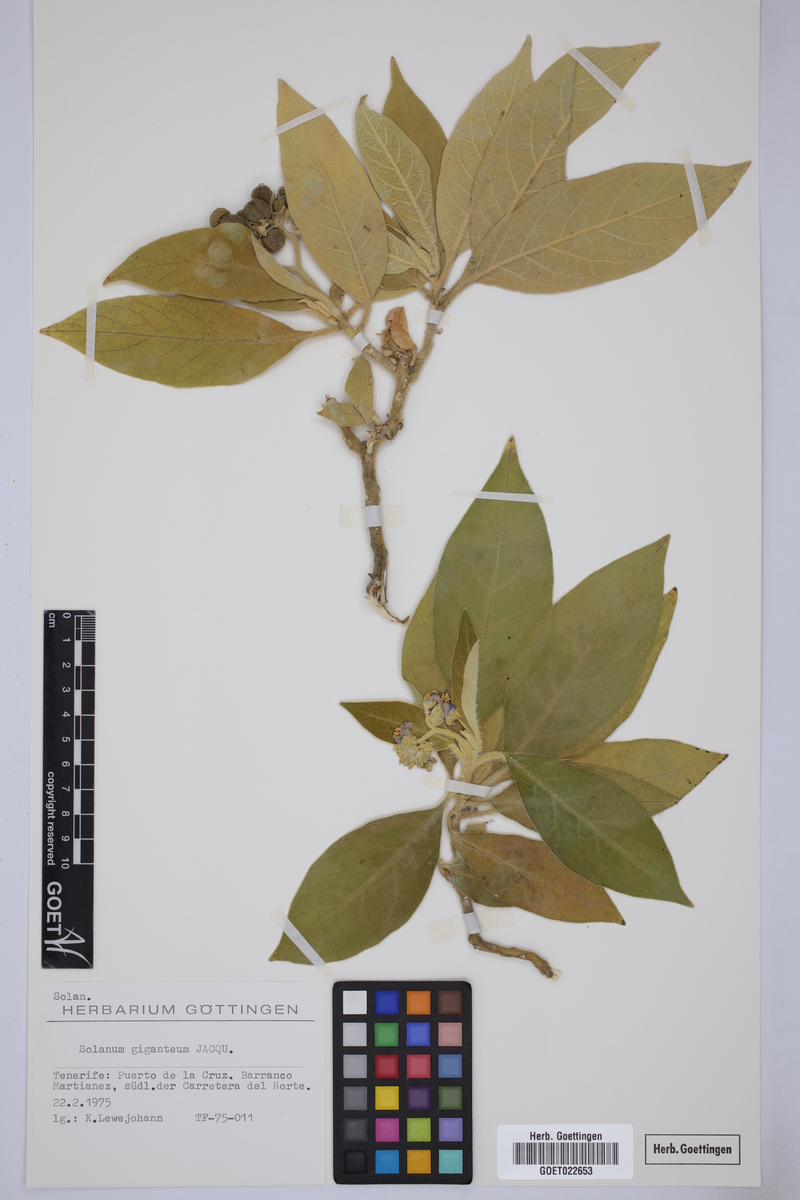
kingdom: Plantae
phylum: Tracheophyta
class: Magnoliopsida
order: Solanales
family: Solanaceae
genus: Solanum
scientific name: Solanum giganteum
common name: Healing-leaf-tree
